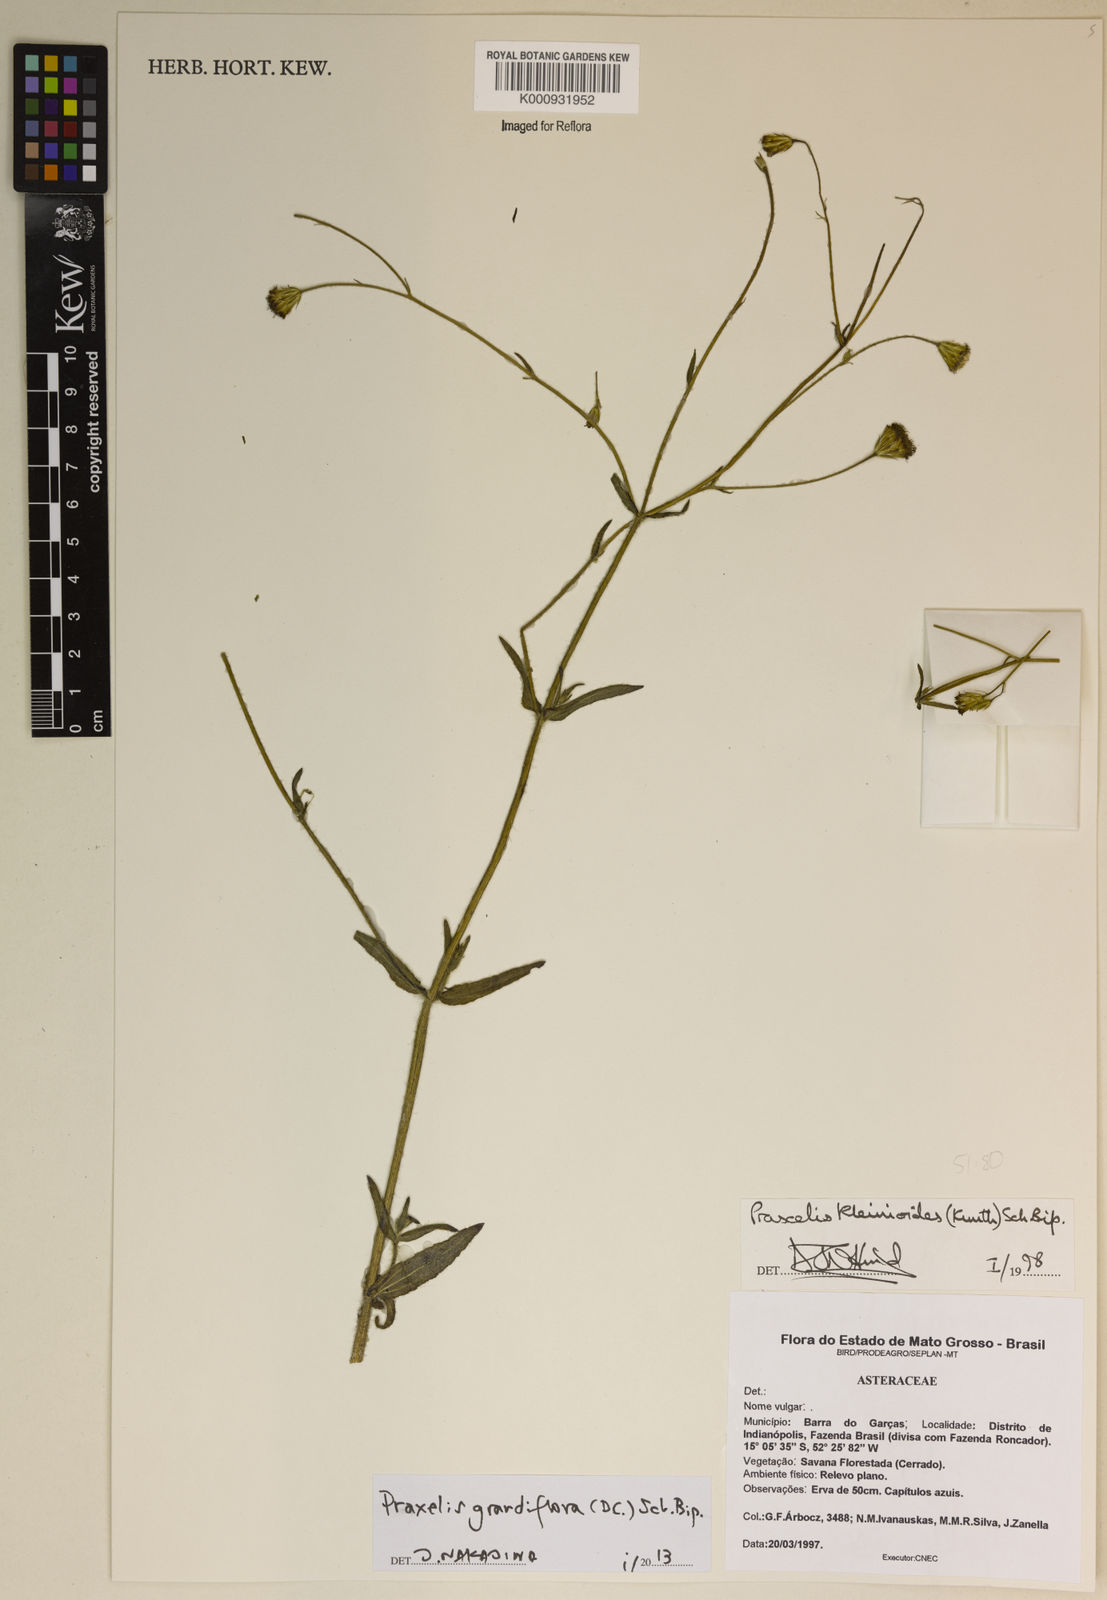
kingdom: Plantae
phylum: Tracheophyta
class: Magnoliopsida
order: Asterales
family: Asteraceae
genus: Praxelis
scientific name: Praxelis grandiflora
